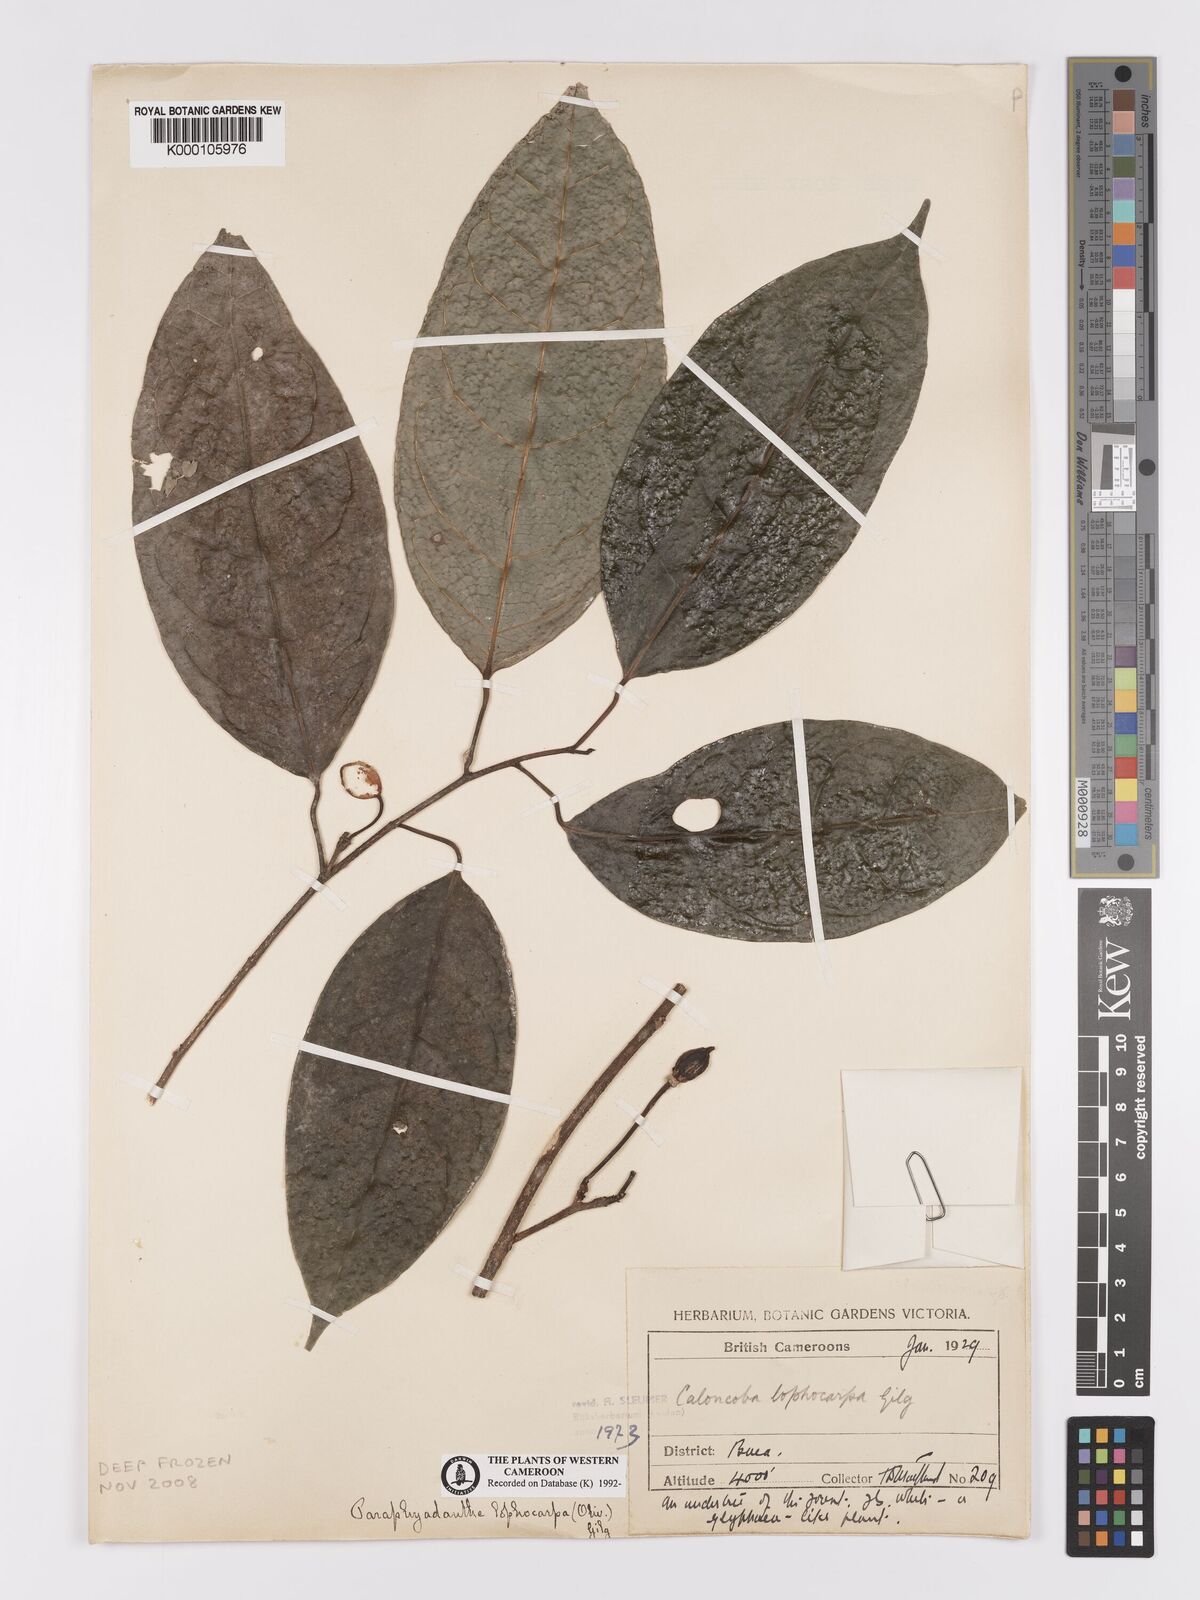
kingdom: Plantae
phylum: Tracheophyta
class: Magnoliopsida
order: Malpighiales
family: Achariaceae
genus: Caloncoba
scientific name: Caloncoba lophocarpa
